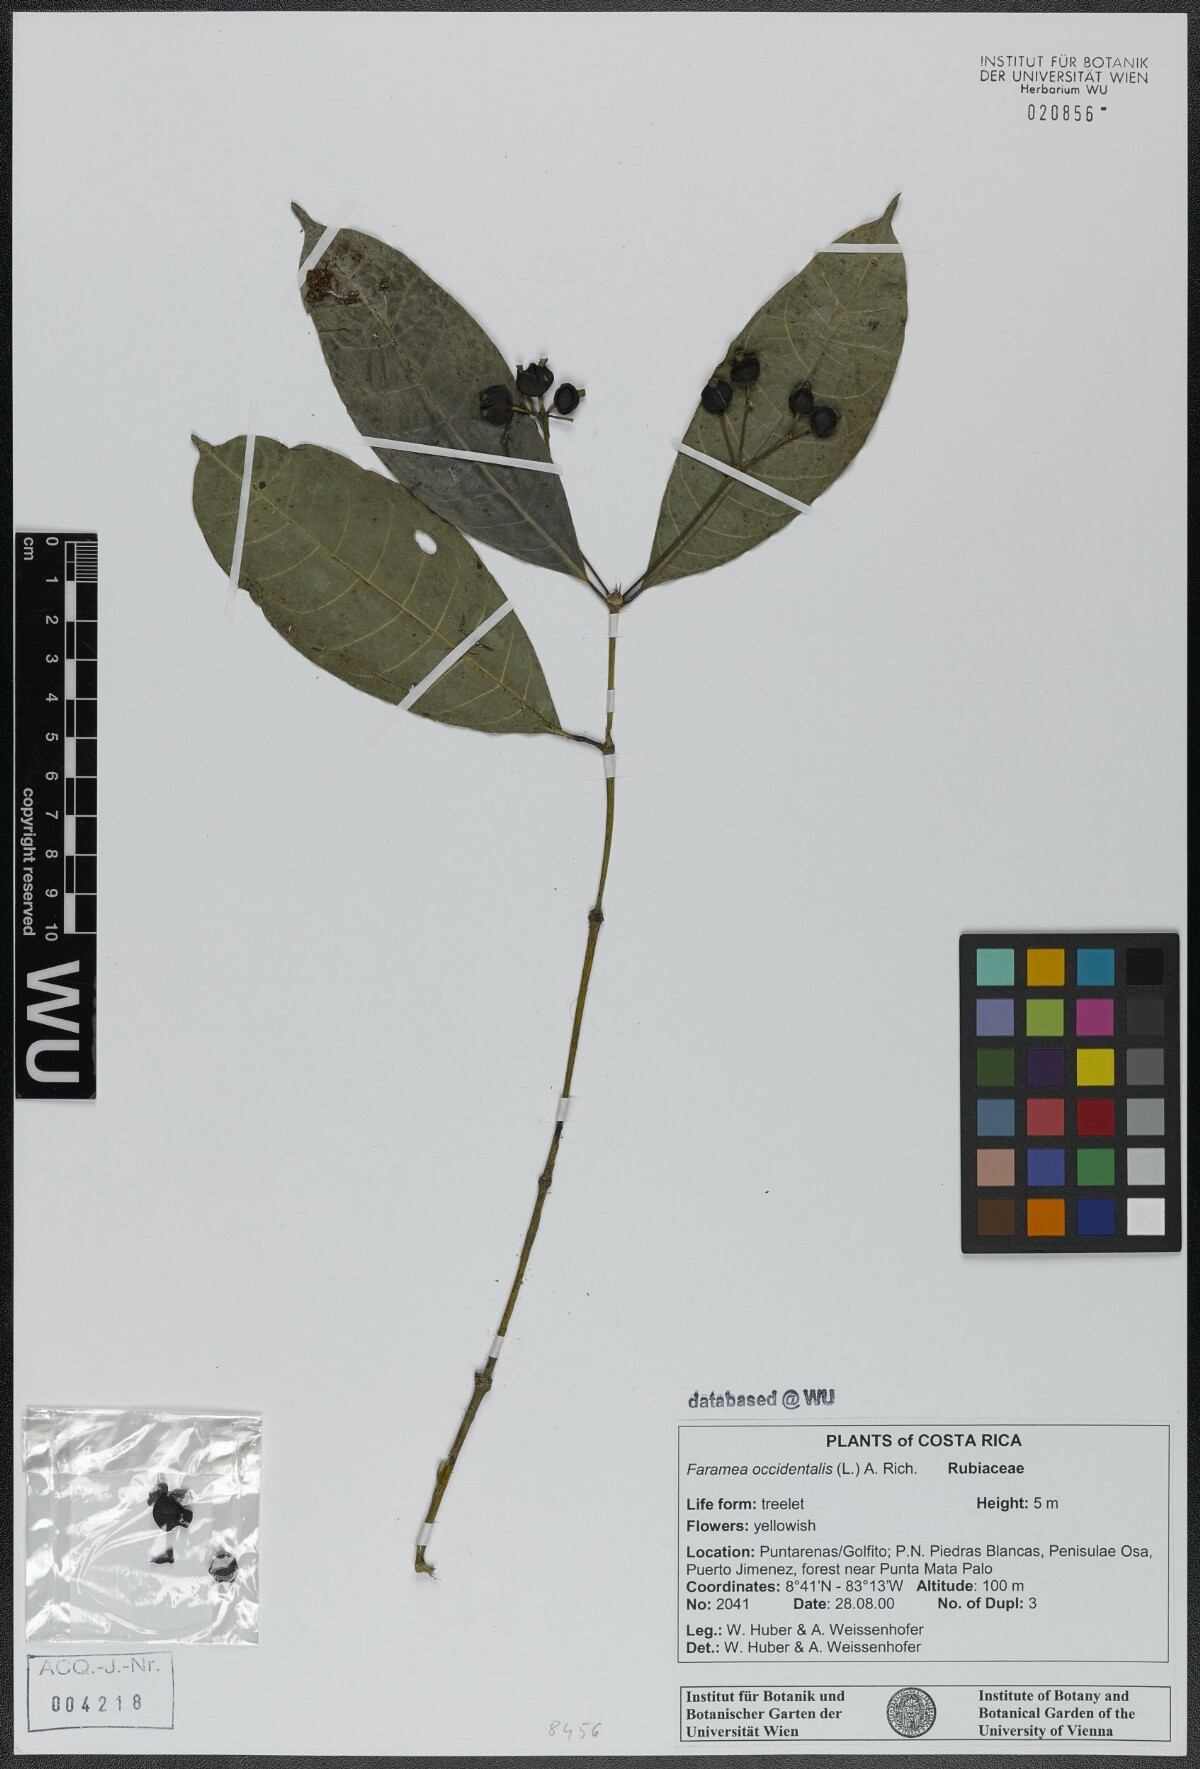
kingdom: Plantae
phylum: Tracheophyta
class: Magnoliopsida
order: Gentianales
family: Rubiaceae
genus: Faramea
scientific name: Faramea occidentalis
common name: False coffee
